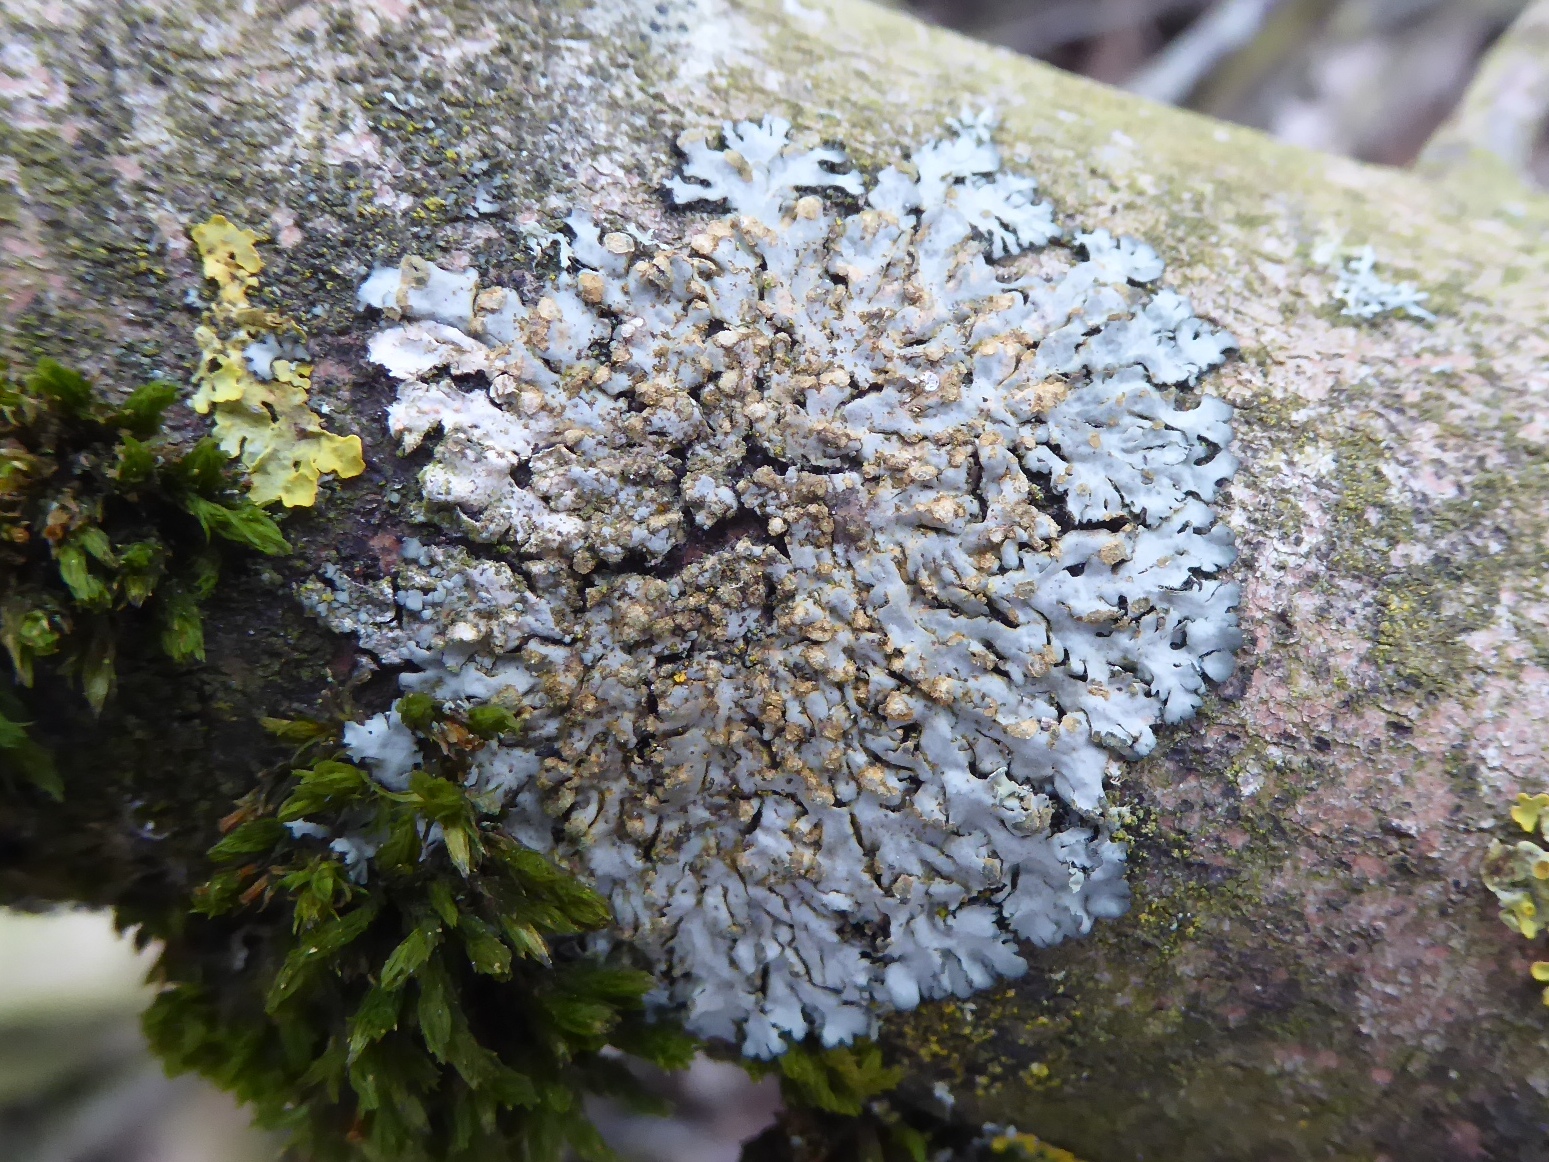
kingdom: Fungi
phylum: Ascomycota
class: Lecanoromycetes
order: Caliciales
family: Physciaceae
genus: Phaeophyscia
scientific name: Phaeophyscia endophoenicea
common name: skygge-rosetlav
